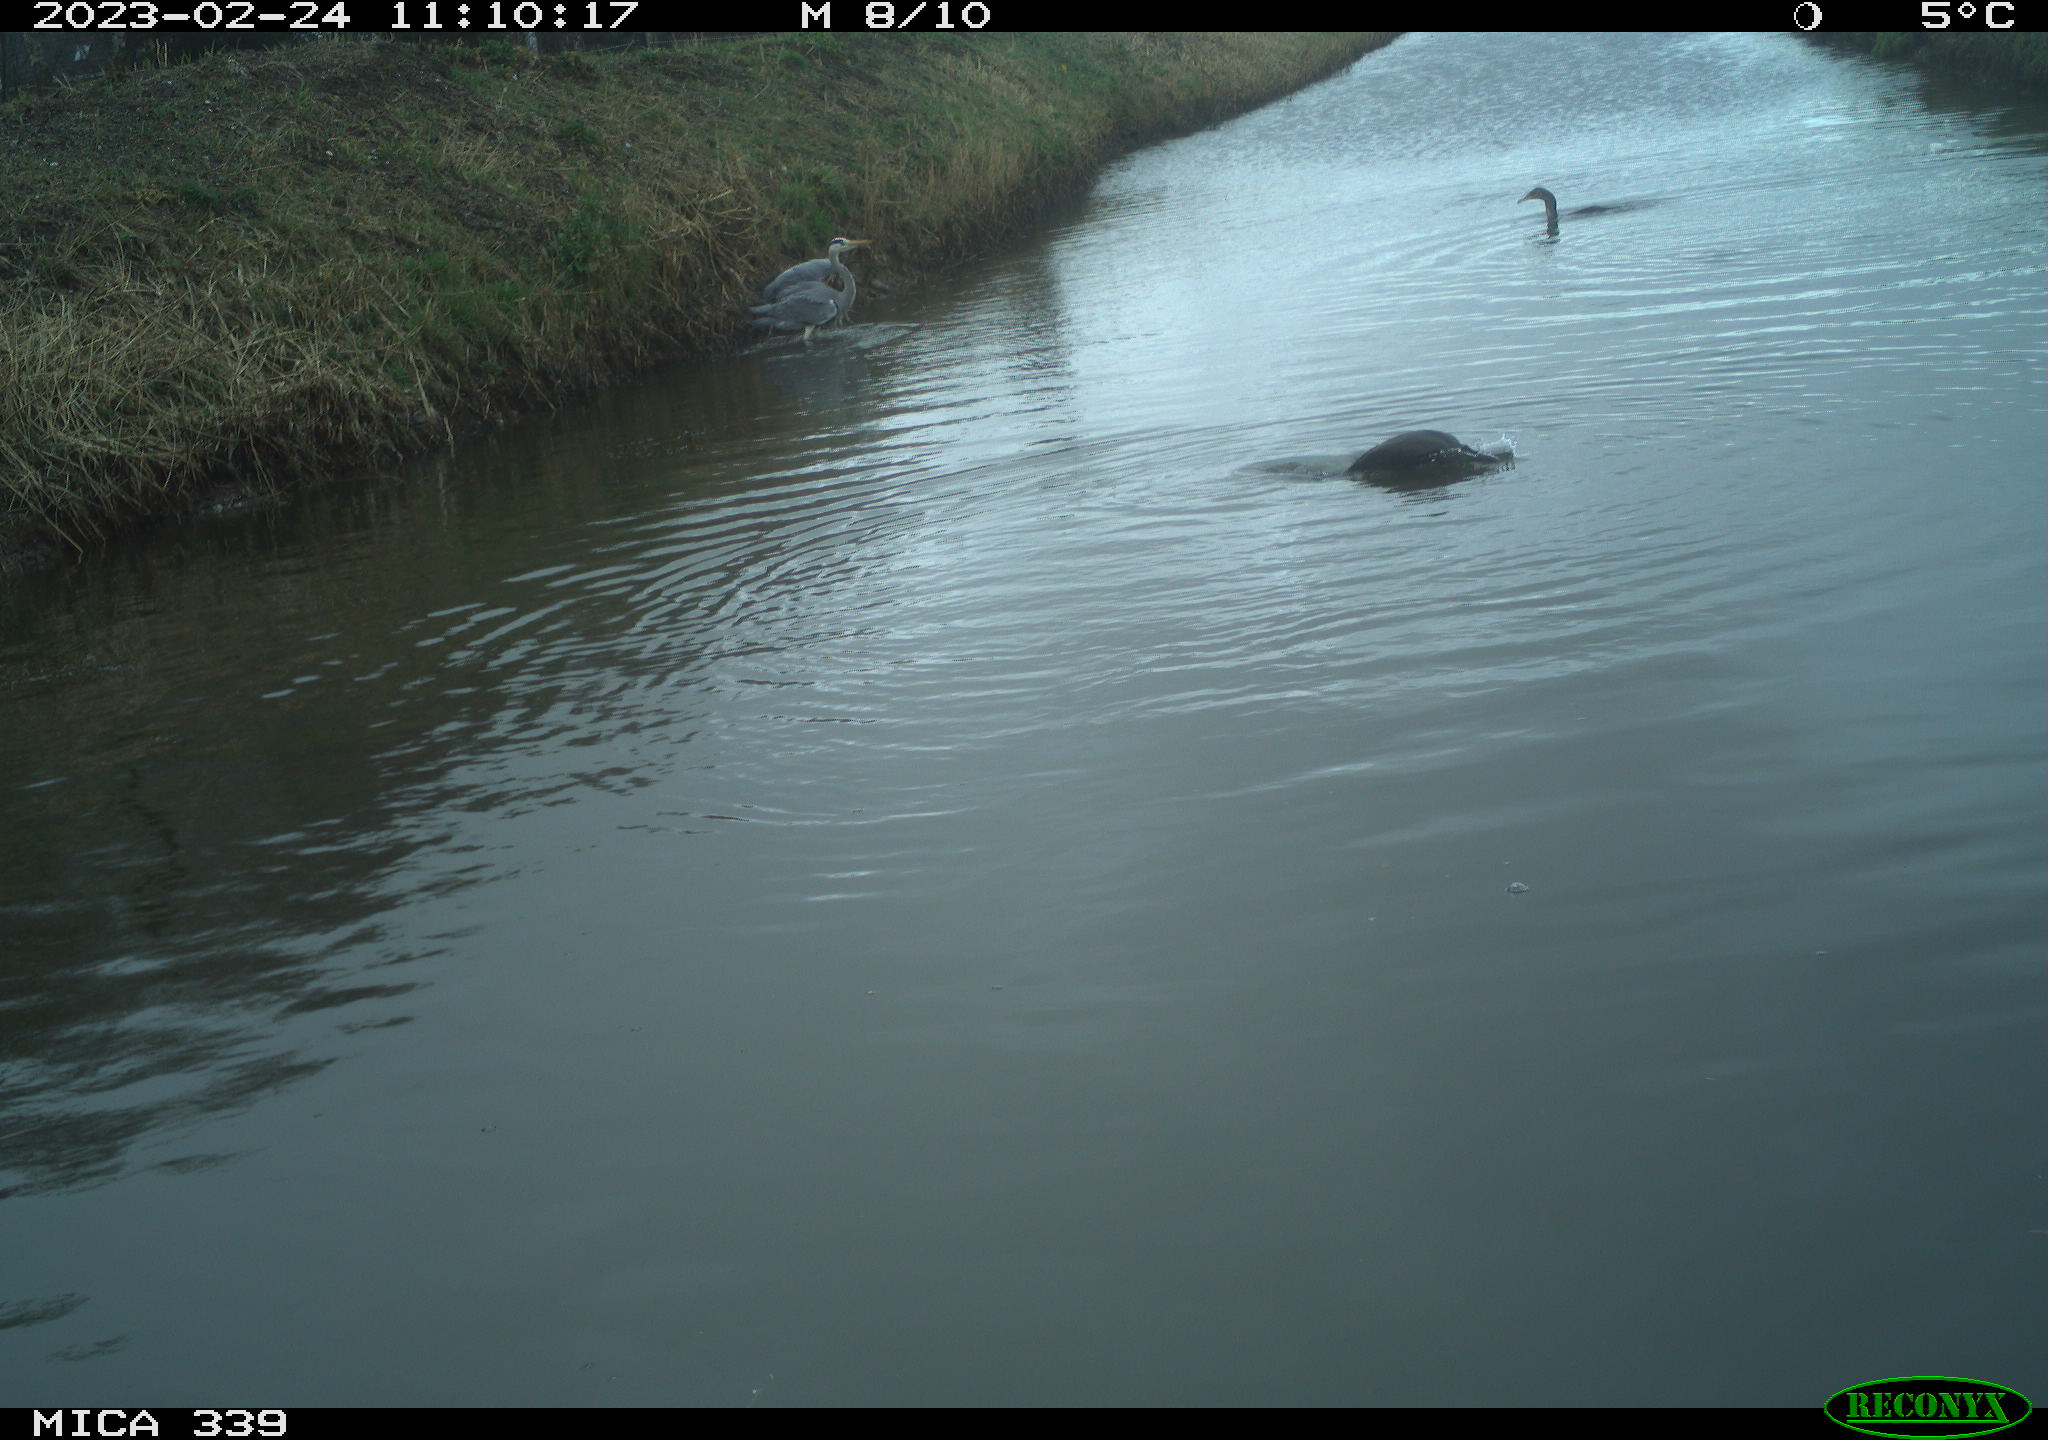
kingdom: Animalia
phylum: Chordata
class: Aves
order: Suliformes
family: Phalacrocoracidae
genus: Phalacrocorax
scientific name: Phalacrocorax carbo
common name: Great cormorant
